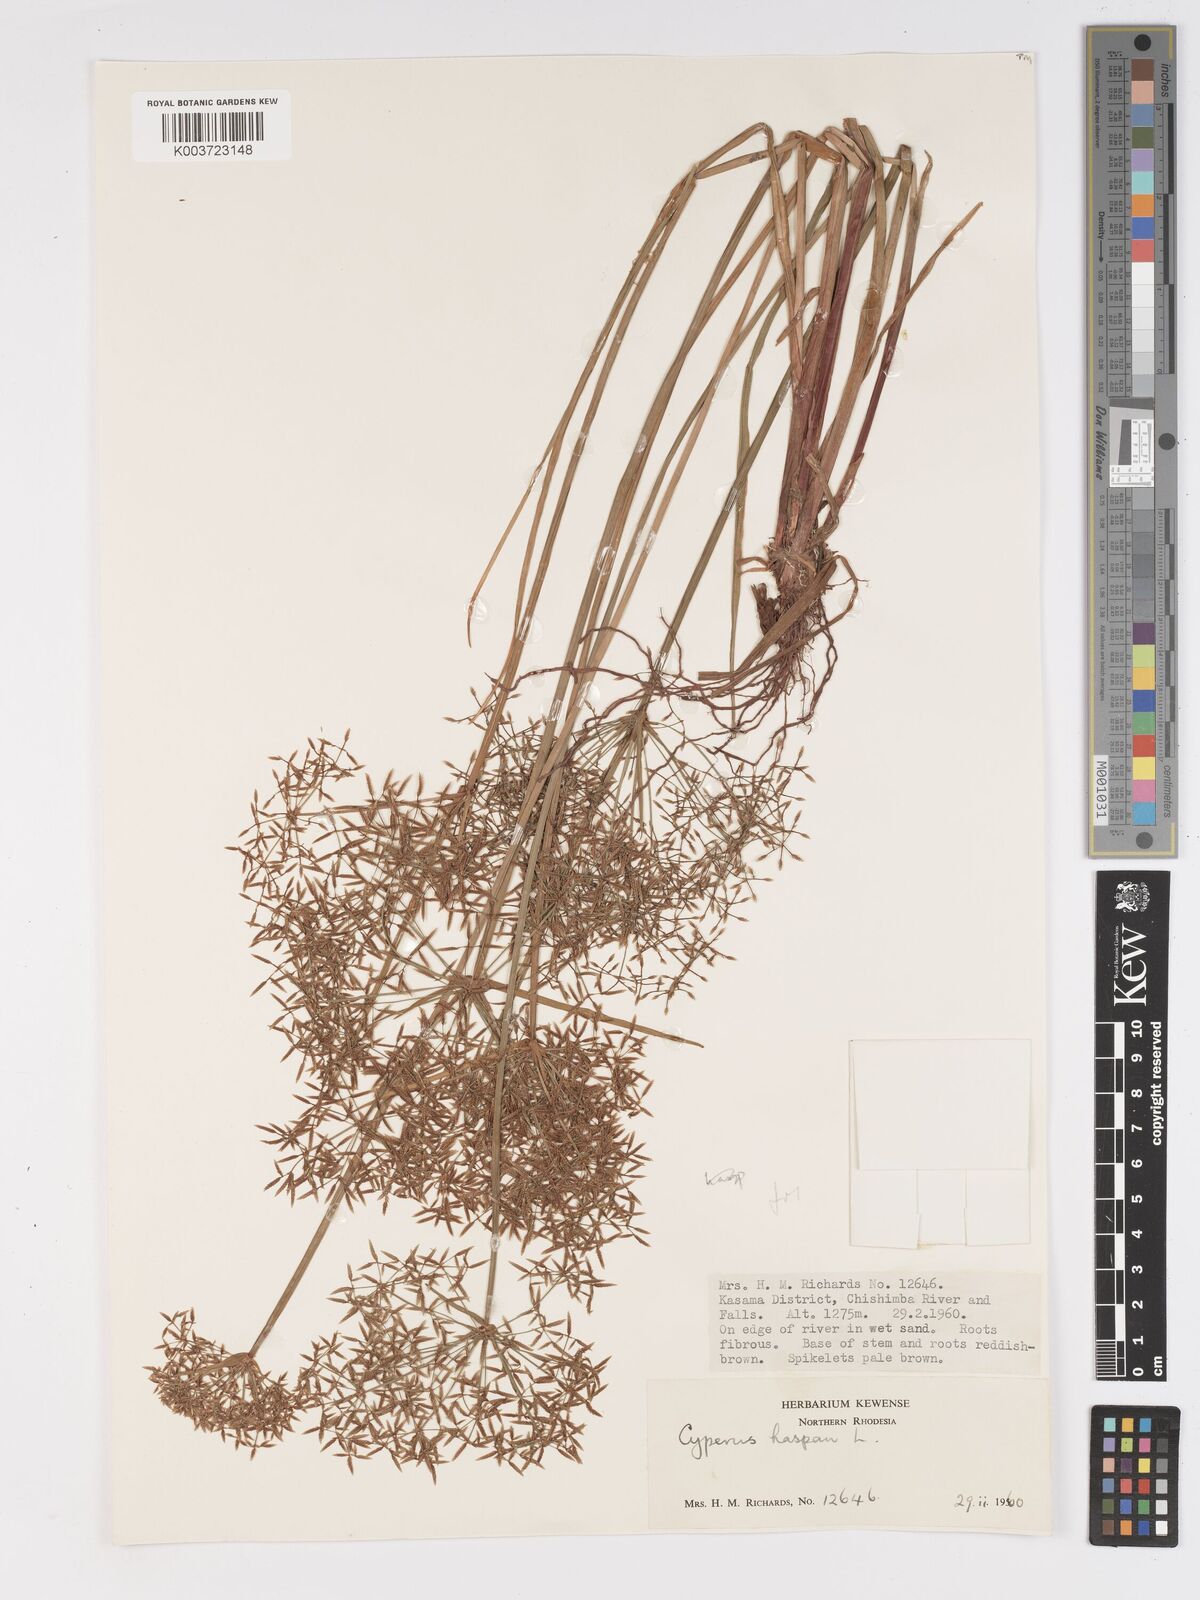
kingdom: Plantae
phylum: Tracheophyta
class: Liliopsida
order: Poales
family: Cyperaceae
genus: Cyperus
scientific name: Cyperus haspan
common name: Haspan flatsedge
